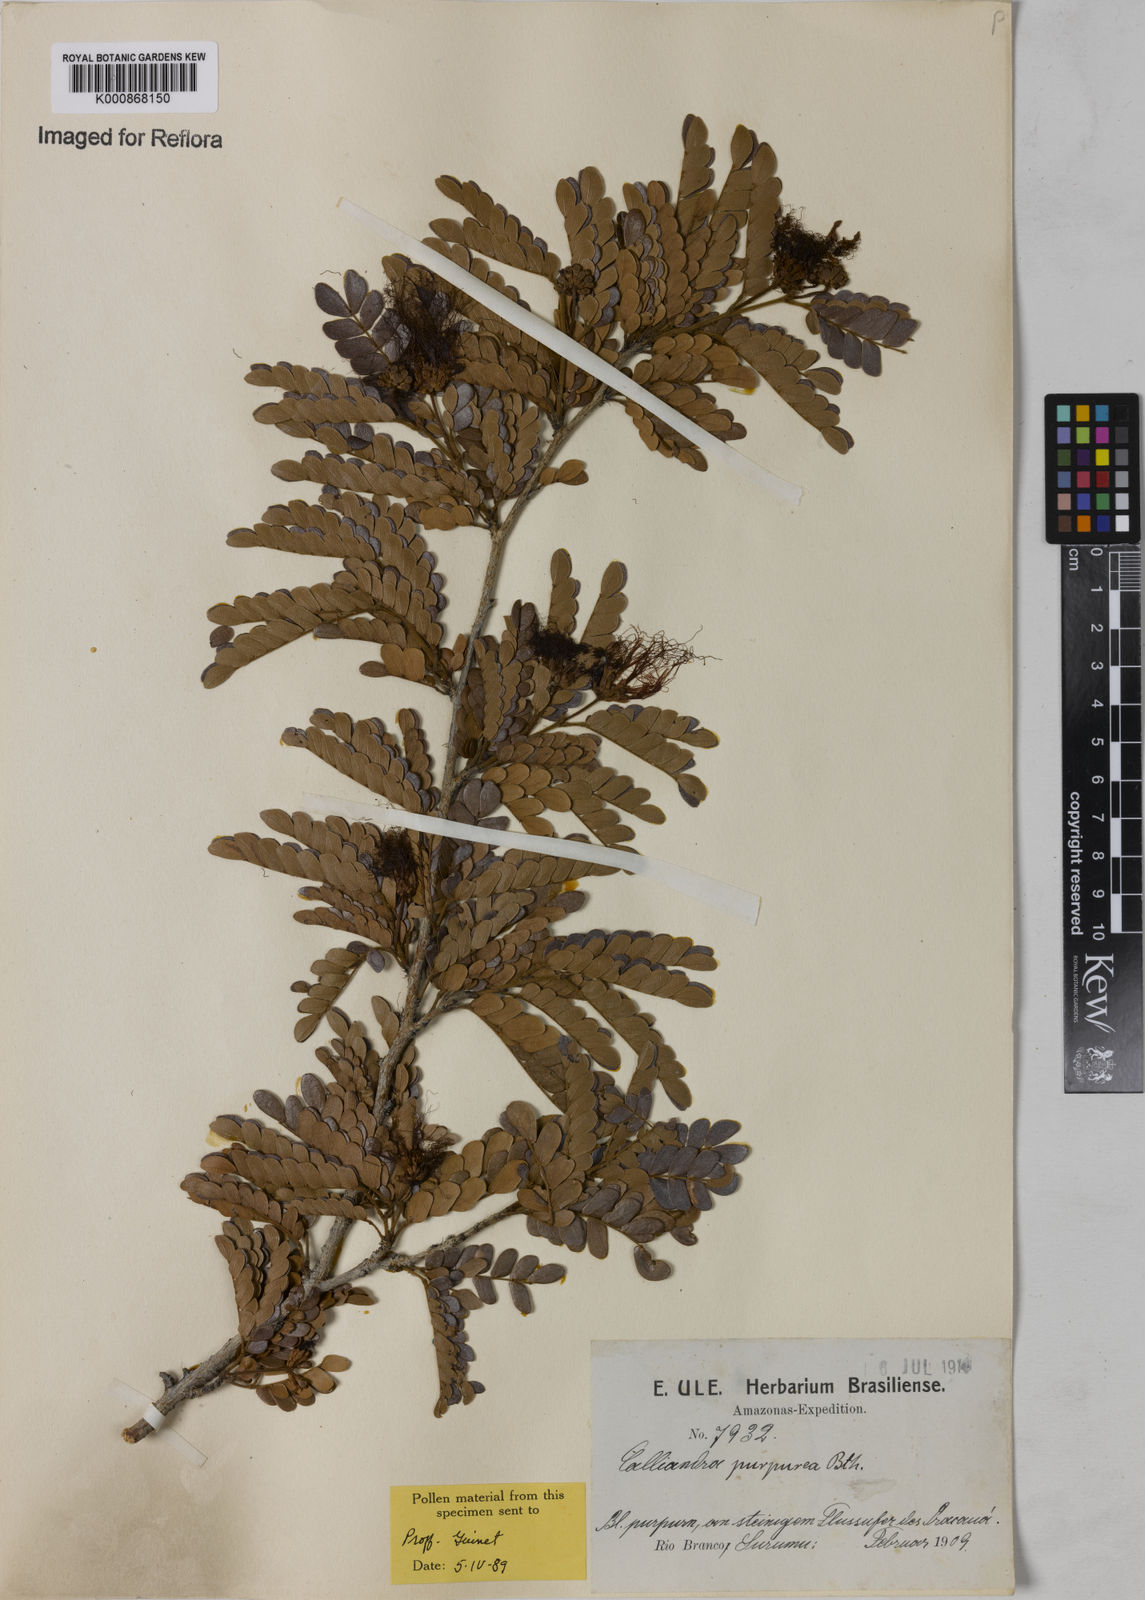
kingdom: Plantae
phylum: Tracheophyta
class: Magnoliopsida
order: Fabales
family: Fabaceae
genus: Calliandra
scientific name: Calliandra purpurea
